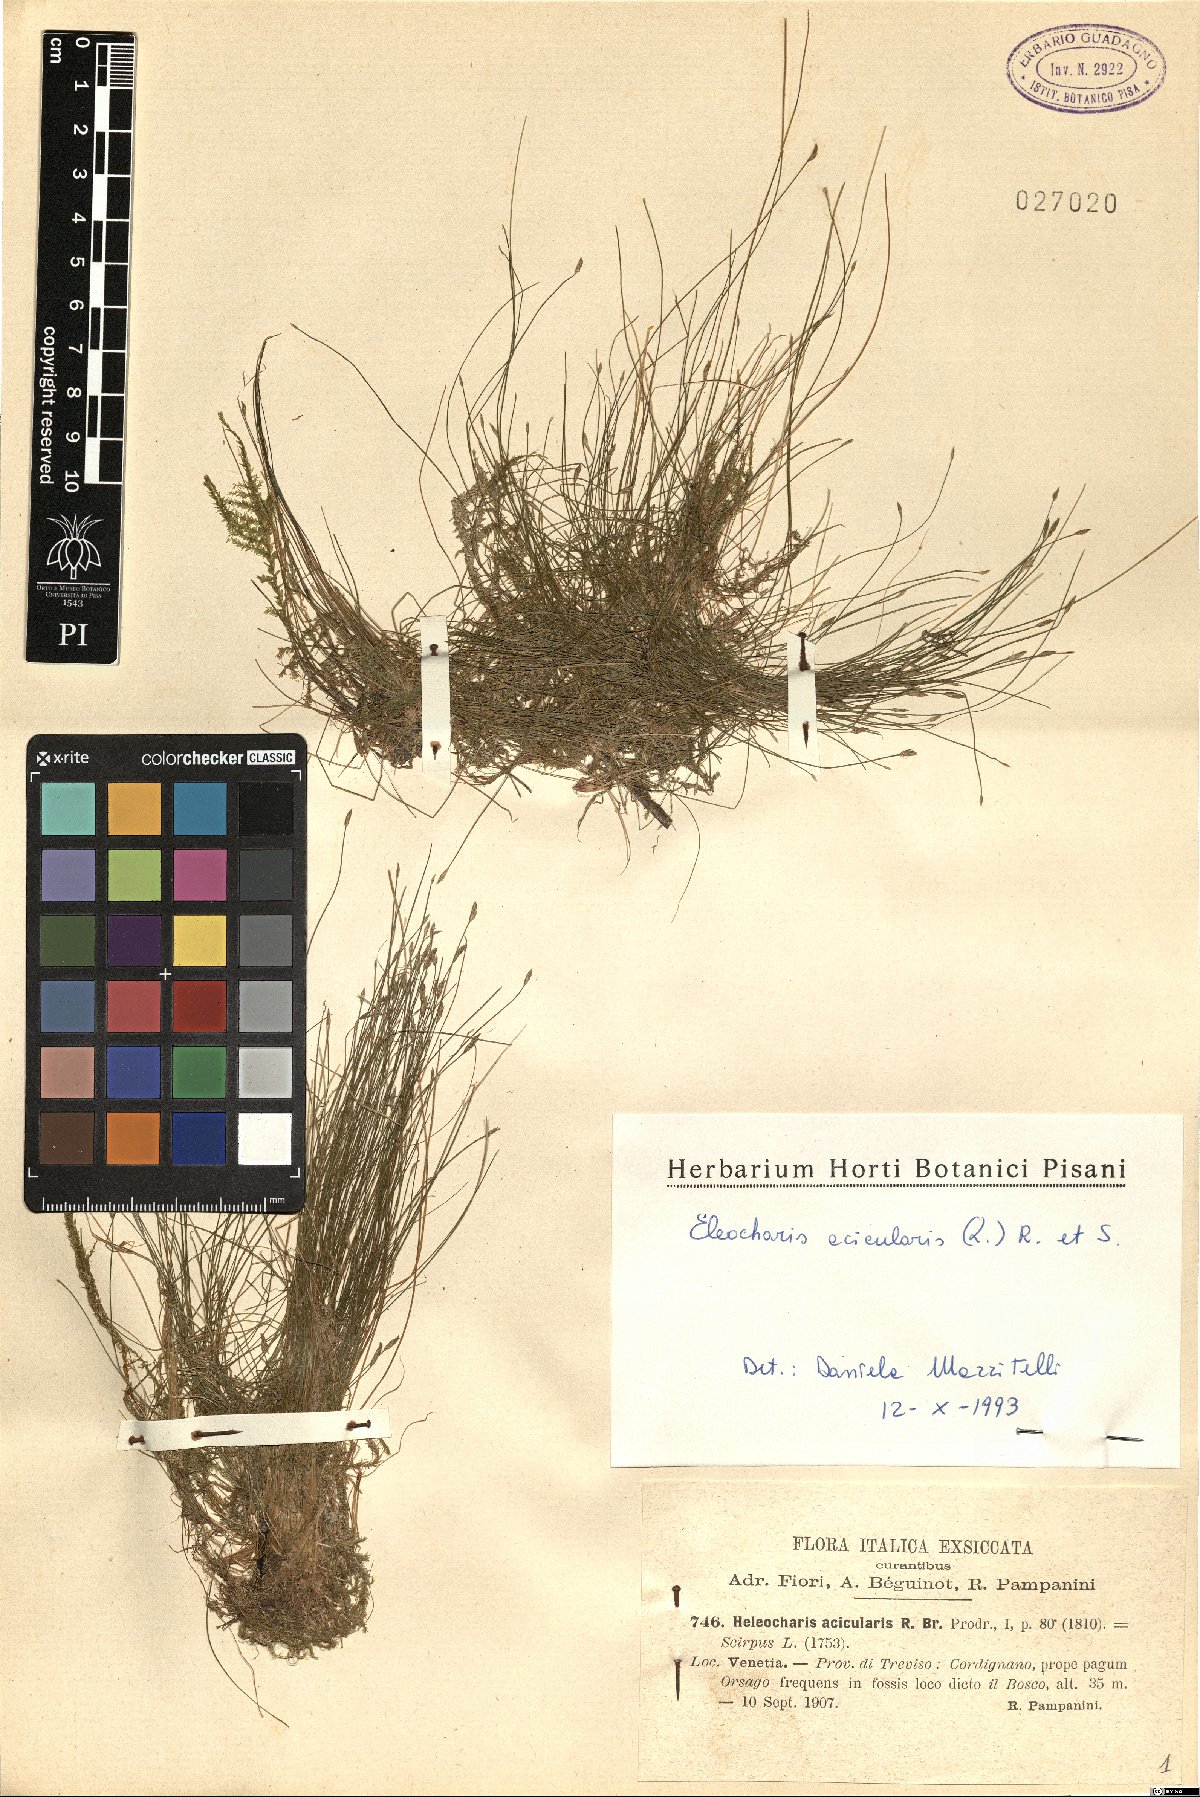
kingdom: Plantae
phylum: Tracheophyta
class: Liliopsida
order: Poales
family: Cyperaceae
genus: Eleocharis
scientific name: Eleocharis acicularis
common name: Needle spike-rush
